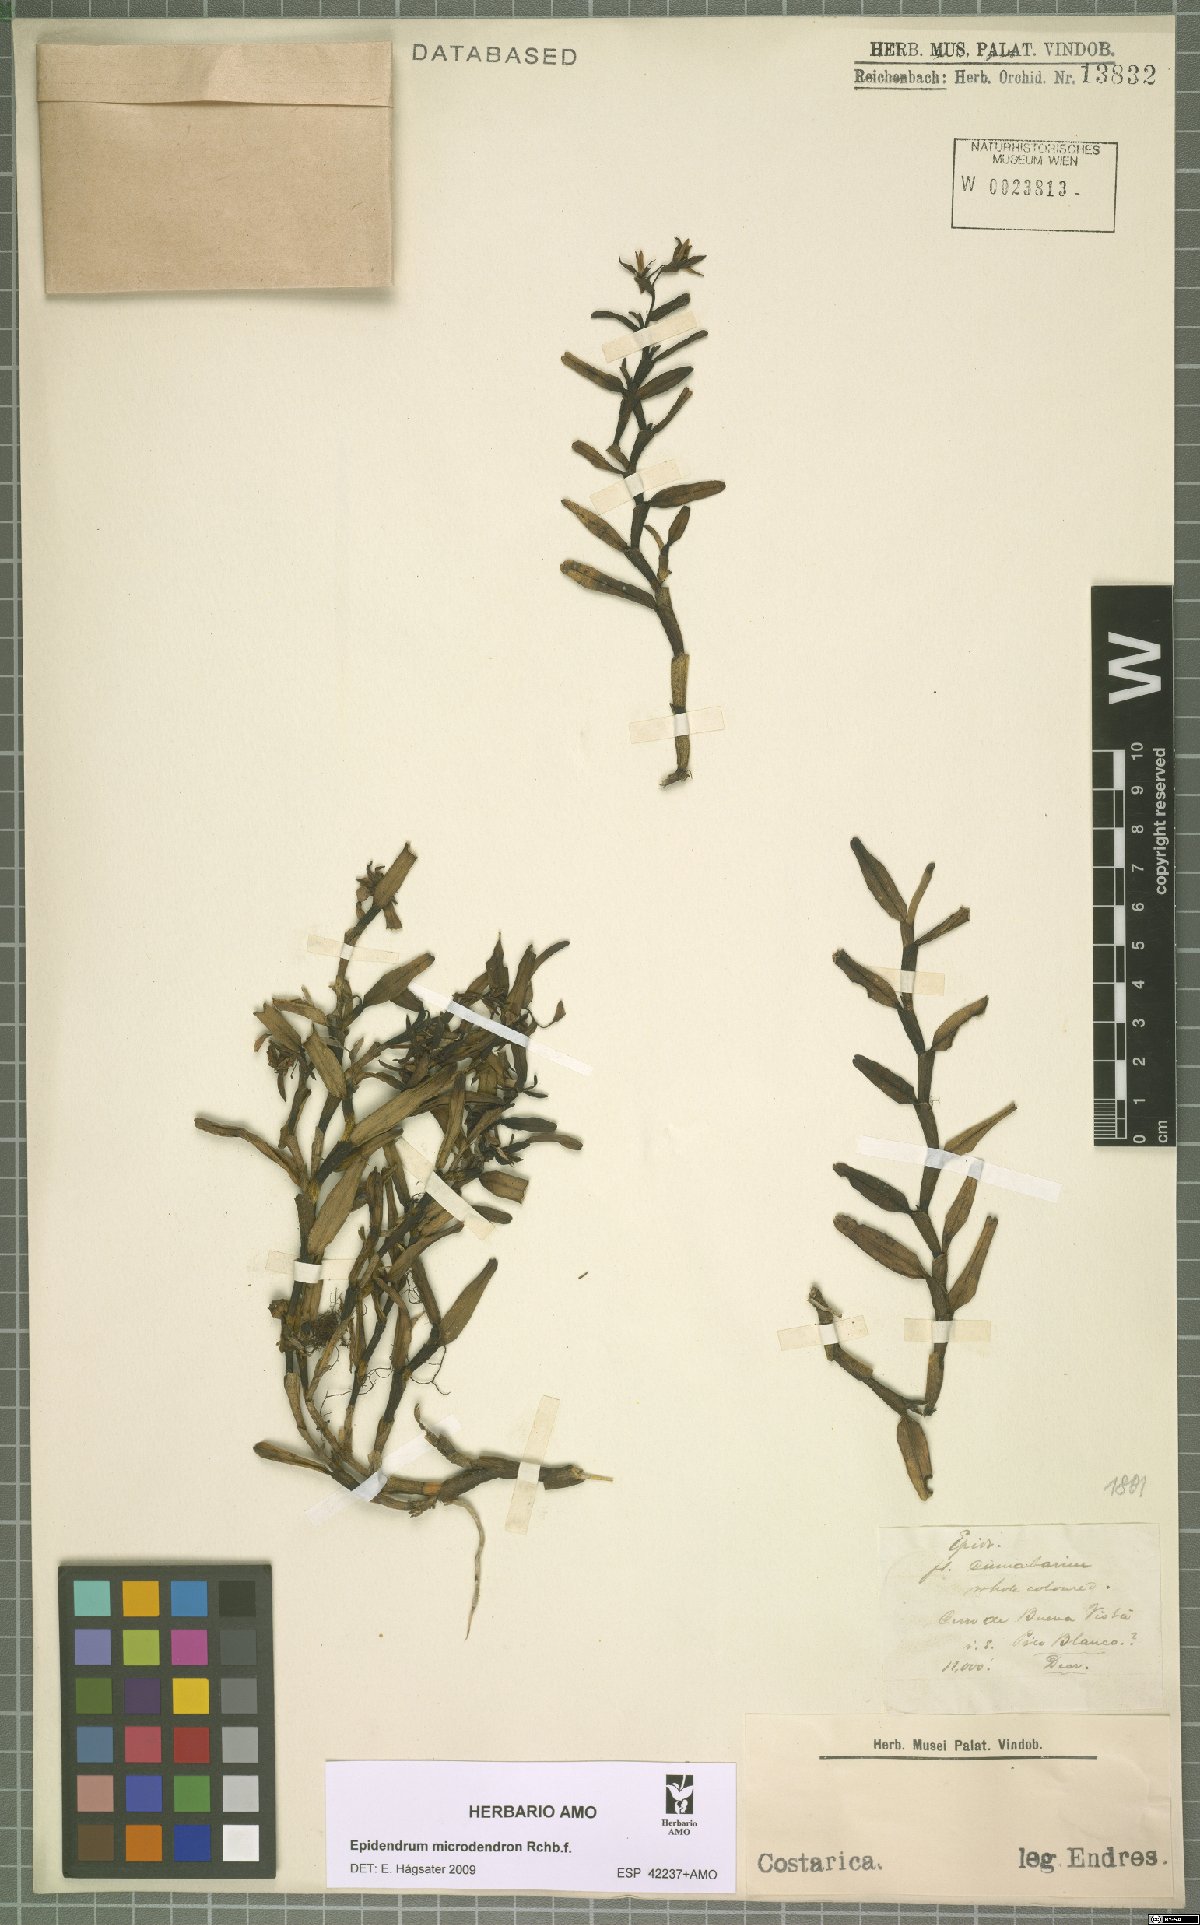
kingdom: Plantae
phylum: Tracheophyta
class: Liliopsida
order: Asparagales
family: Orchidaceae
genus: Epidendrum
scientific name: Epidendrum microdendron
